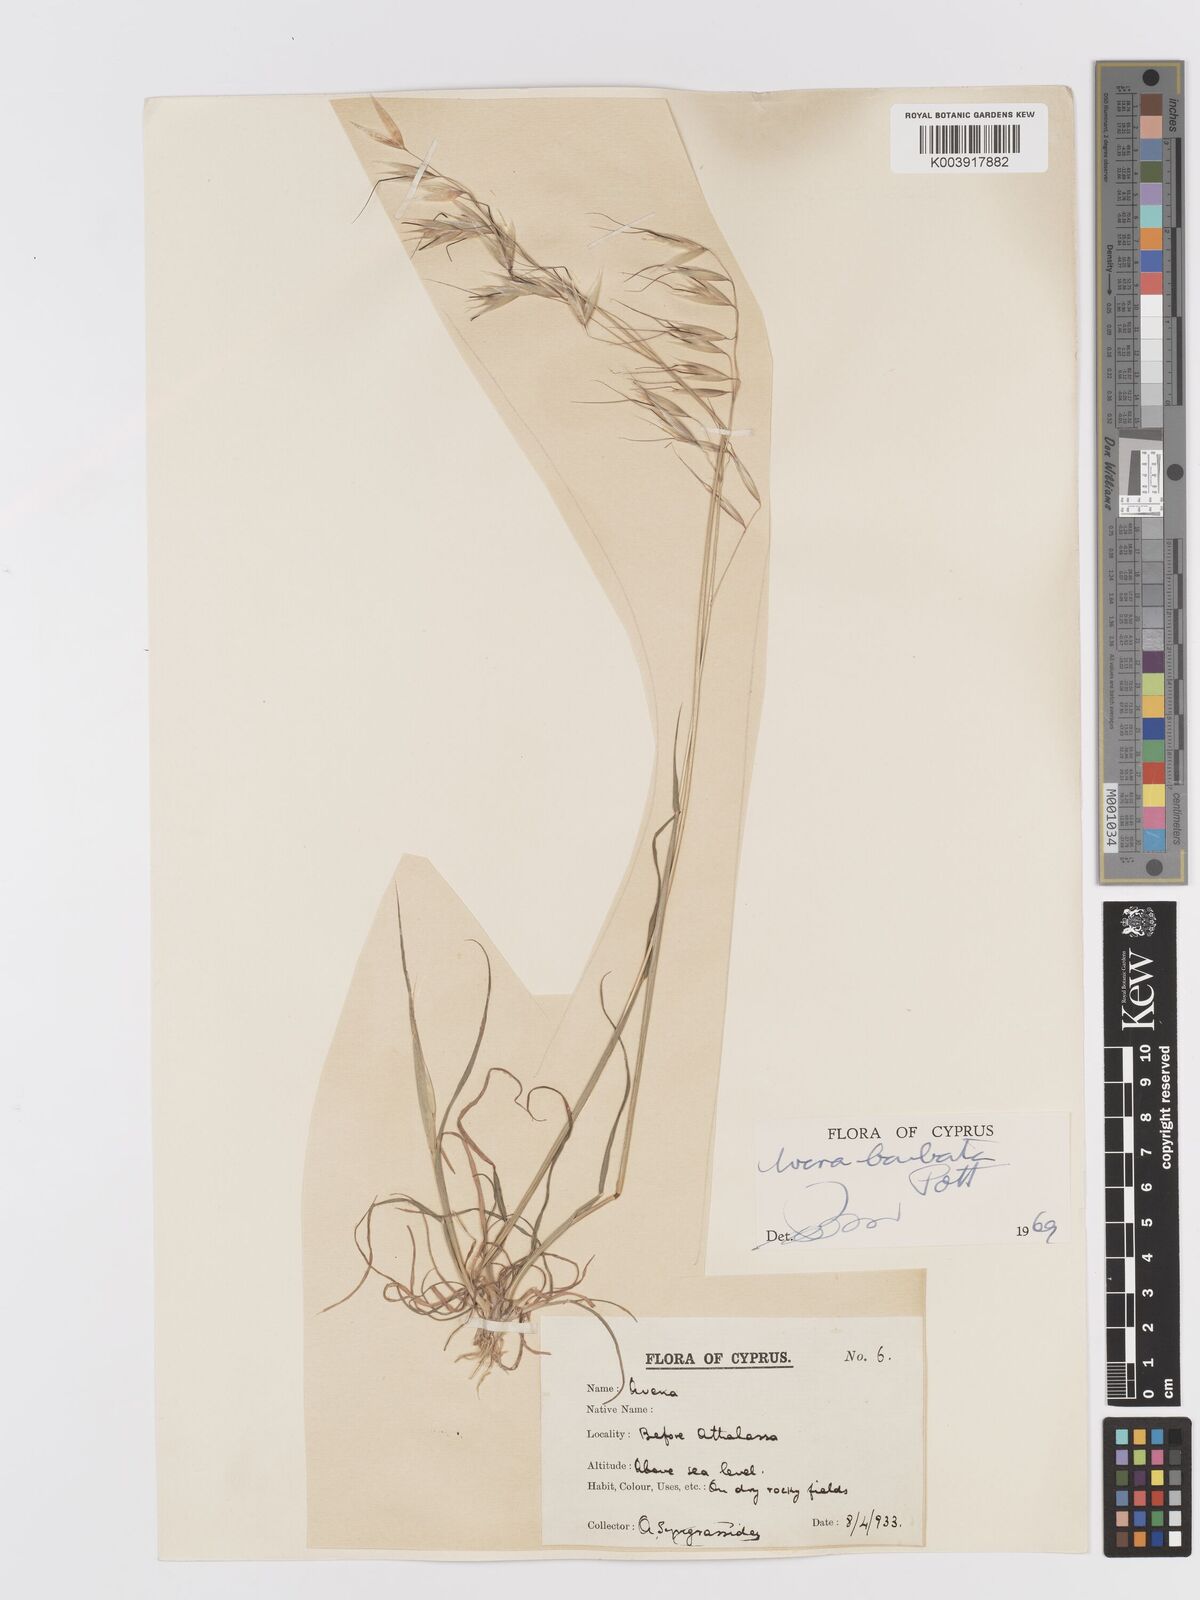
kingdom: Plantae
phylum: Tracheophyta
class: Liliopsida
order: Poales
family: Poaceae
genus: Avena
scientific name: Avena
